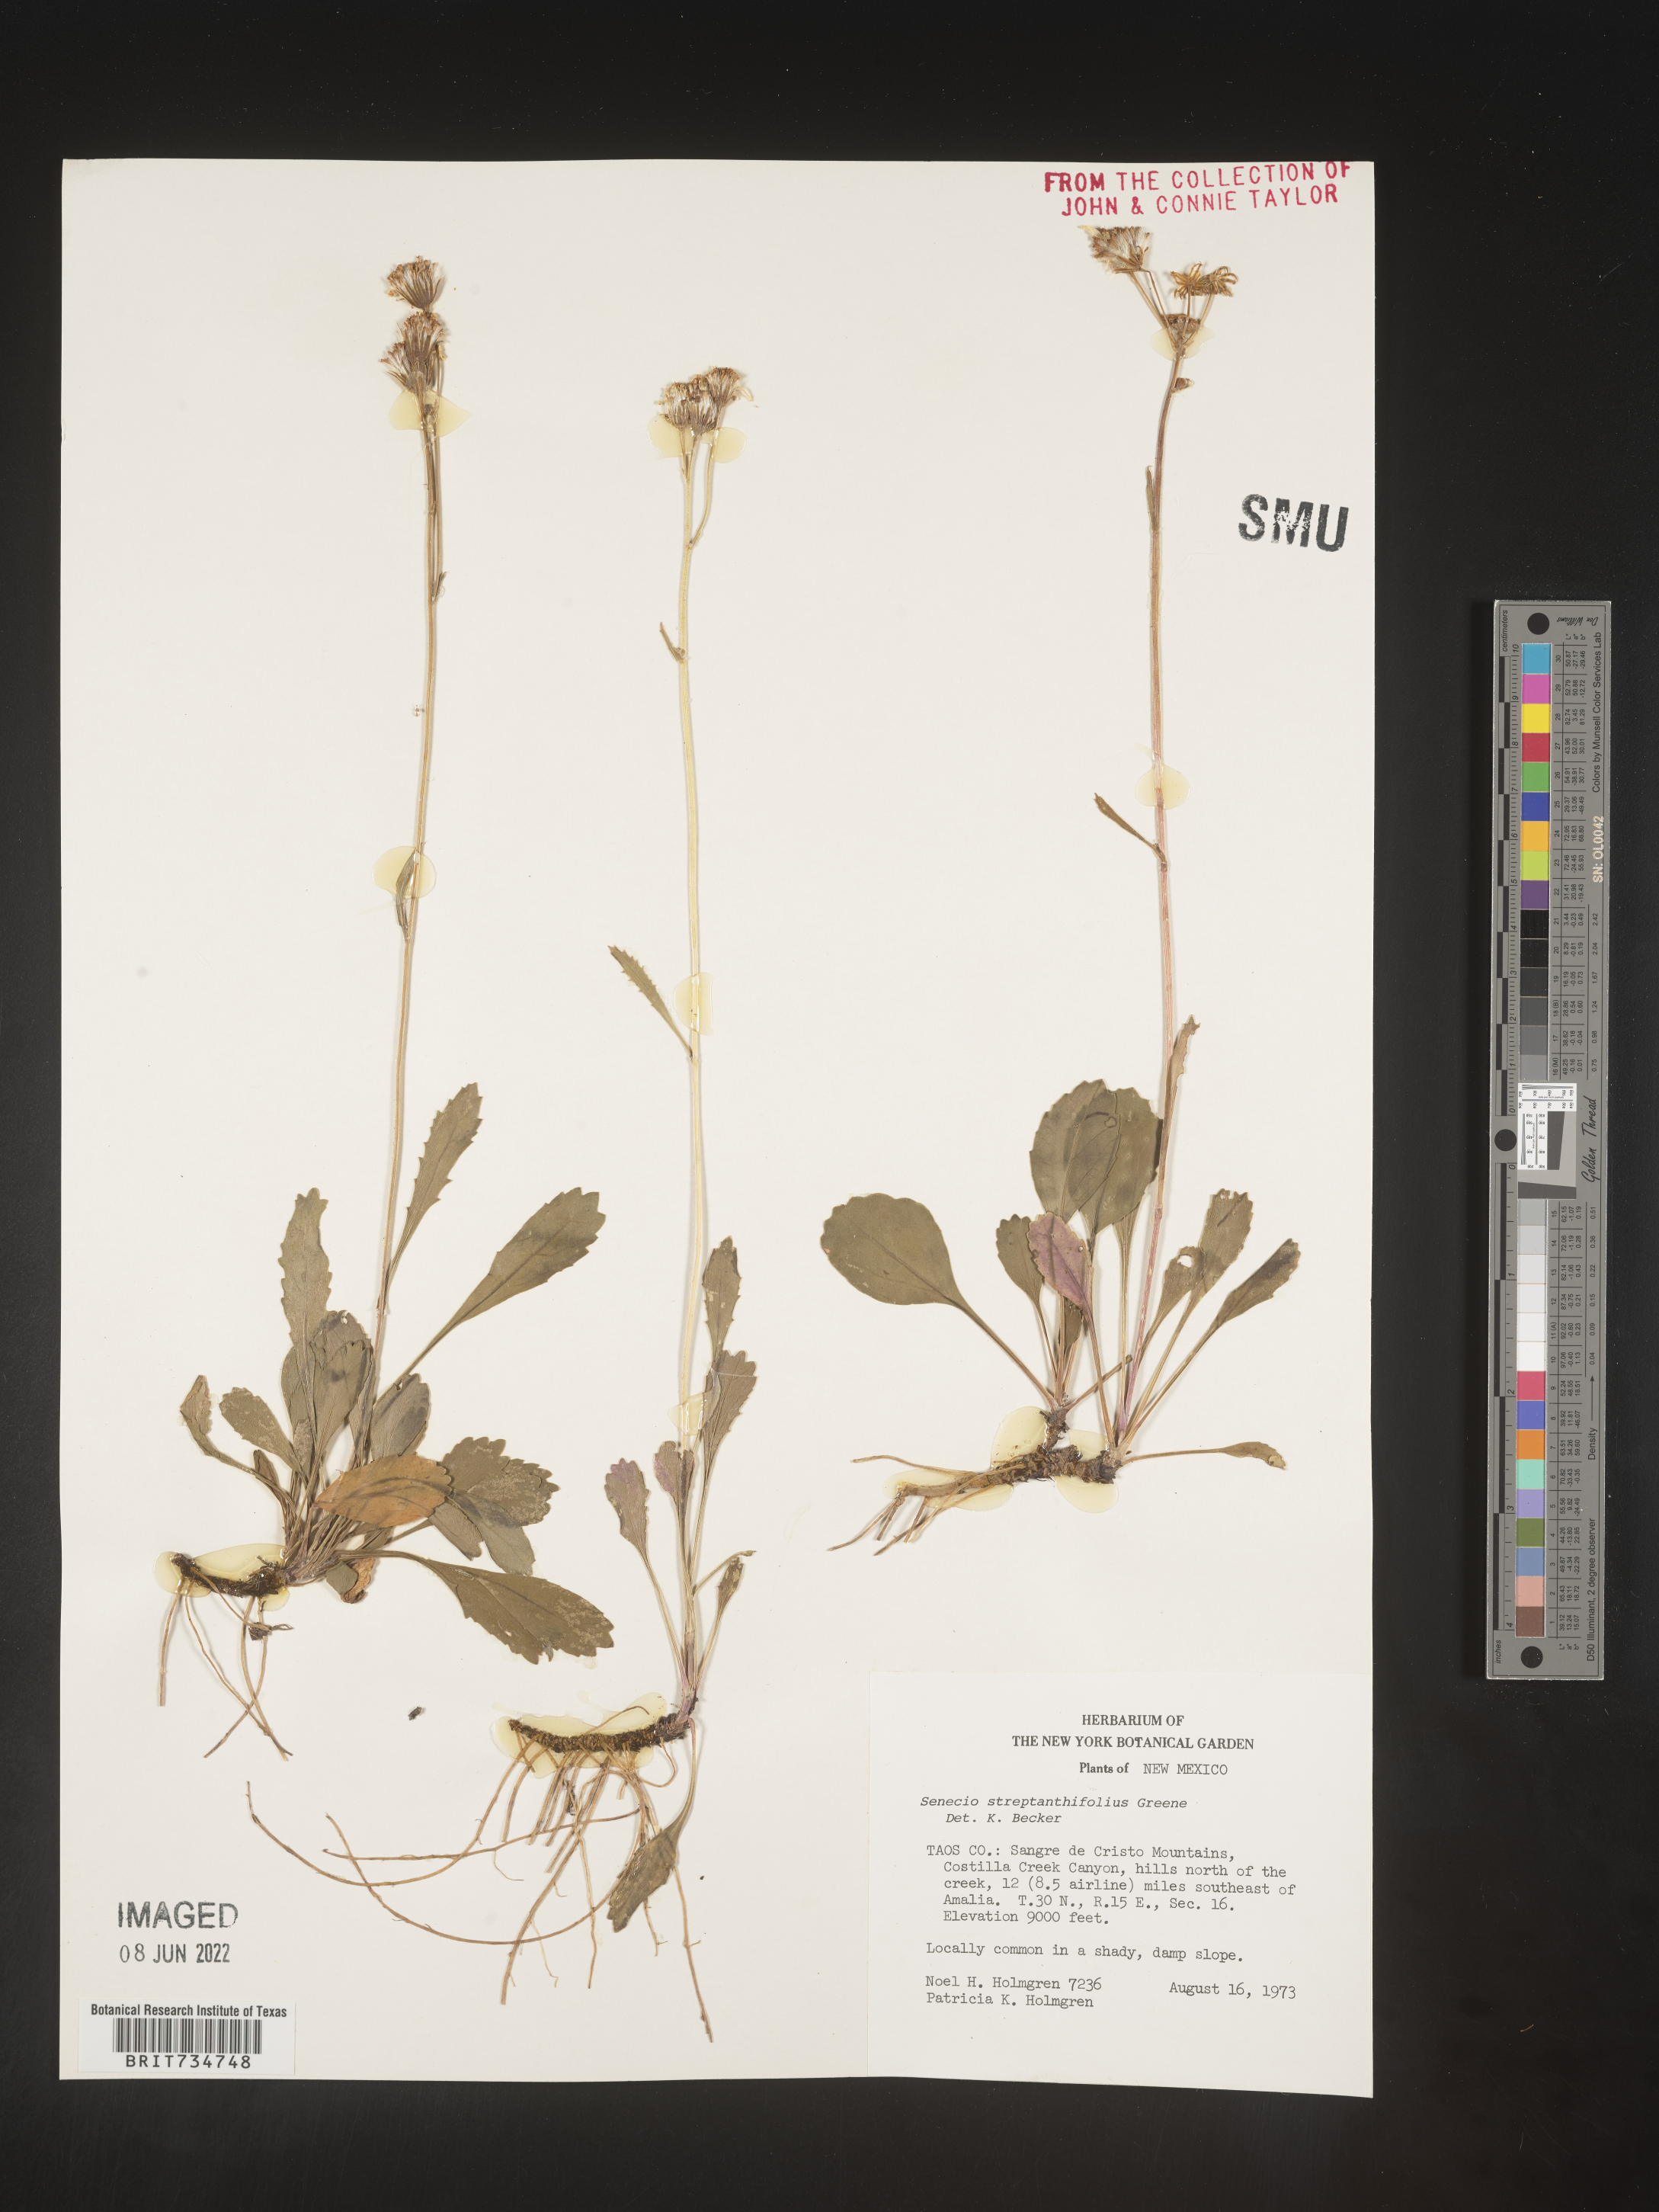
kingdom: Plantae
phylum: Tracheophyta
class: Magnoliopsida
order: Asterales
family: Asteraceae
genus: Packera
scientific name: Packera streptanthifolia
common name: Rocky mountain butterweed
